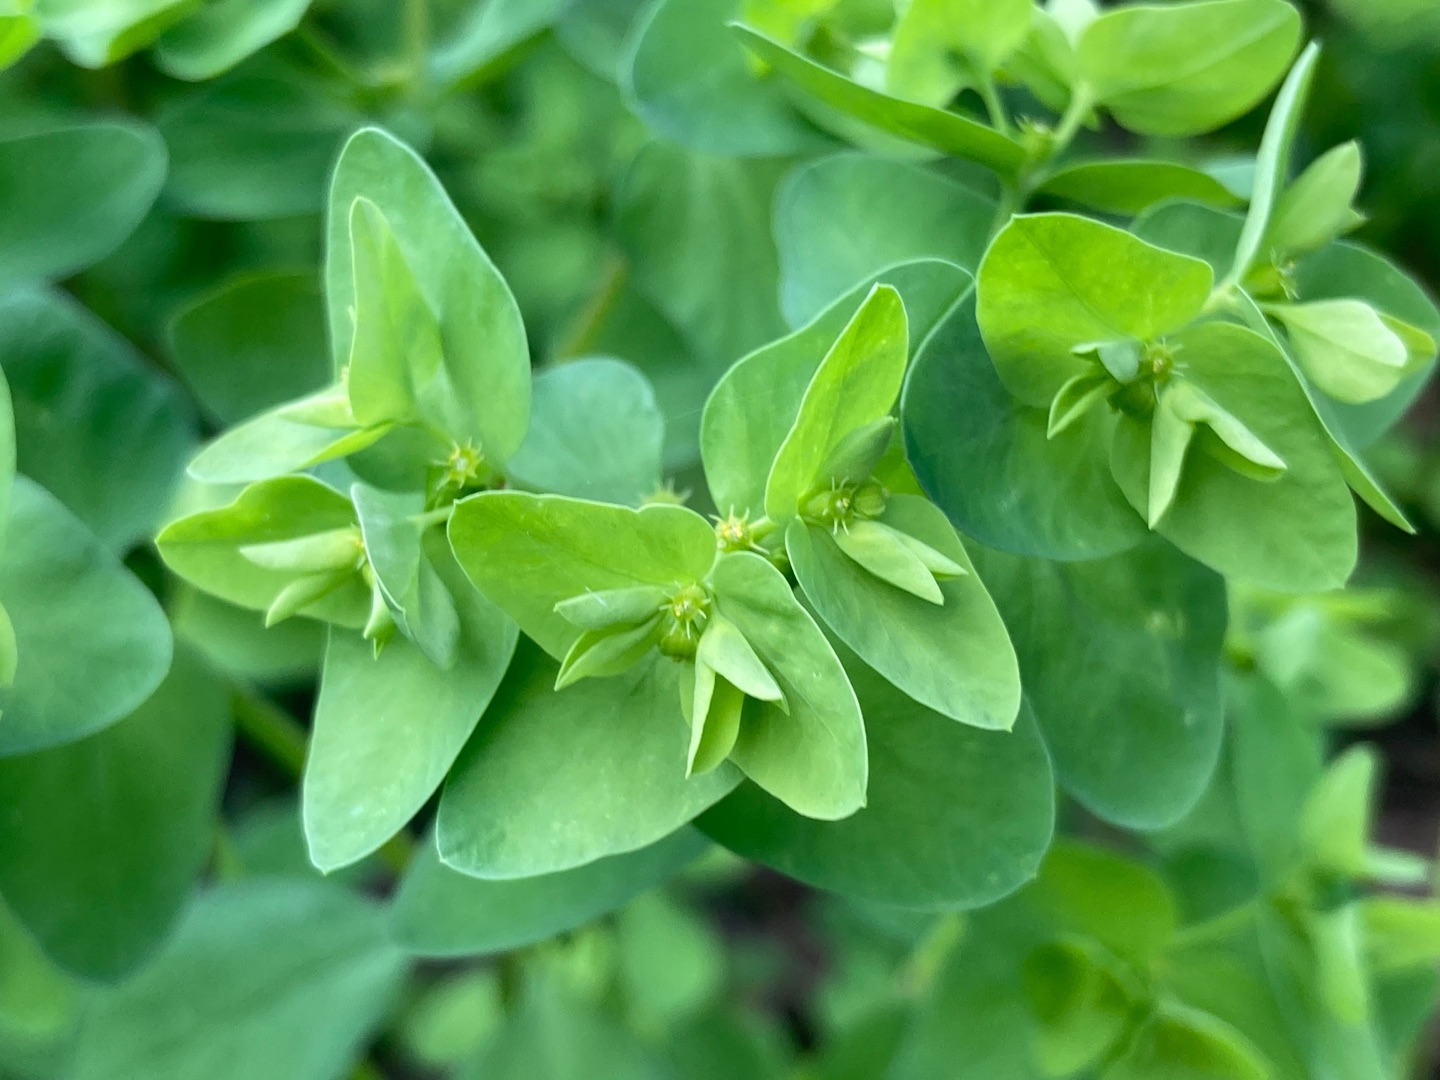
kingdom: Plantae
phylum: Tracheophyta
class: Magnoliopsida
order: Malpighiales
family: Euphorbiaceae
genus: Euphorbia
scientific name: Euphorbia peplus
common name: Gaffel-vortemælk
